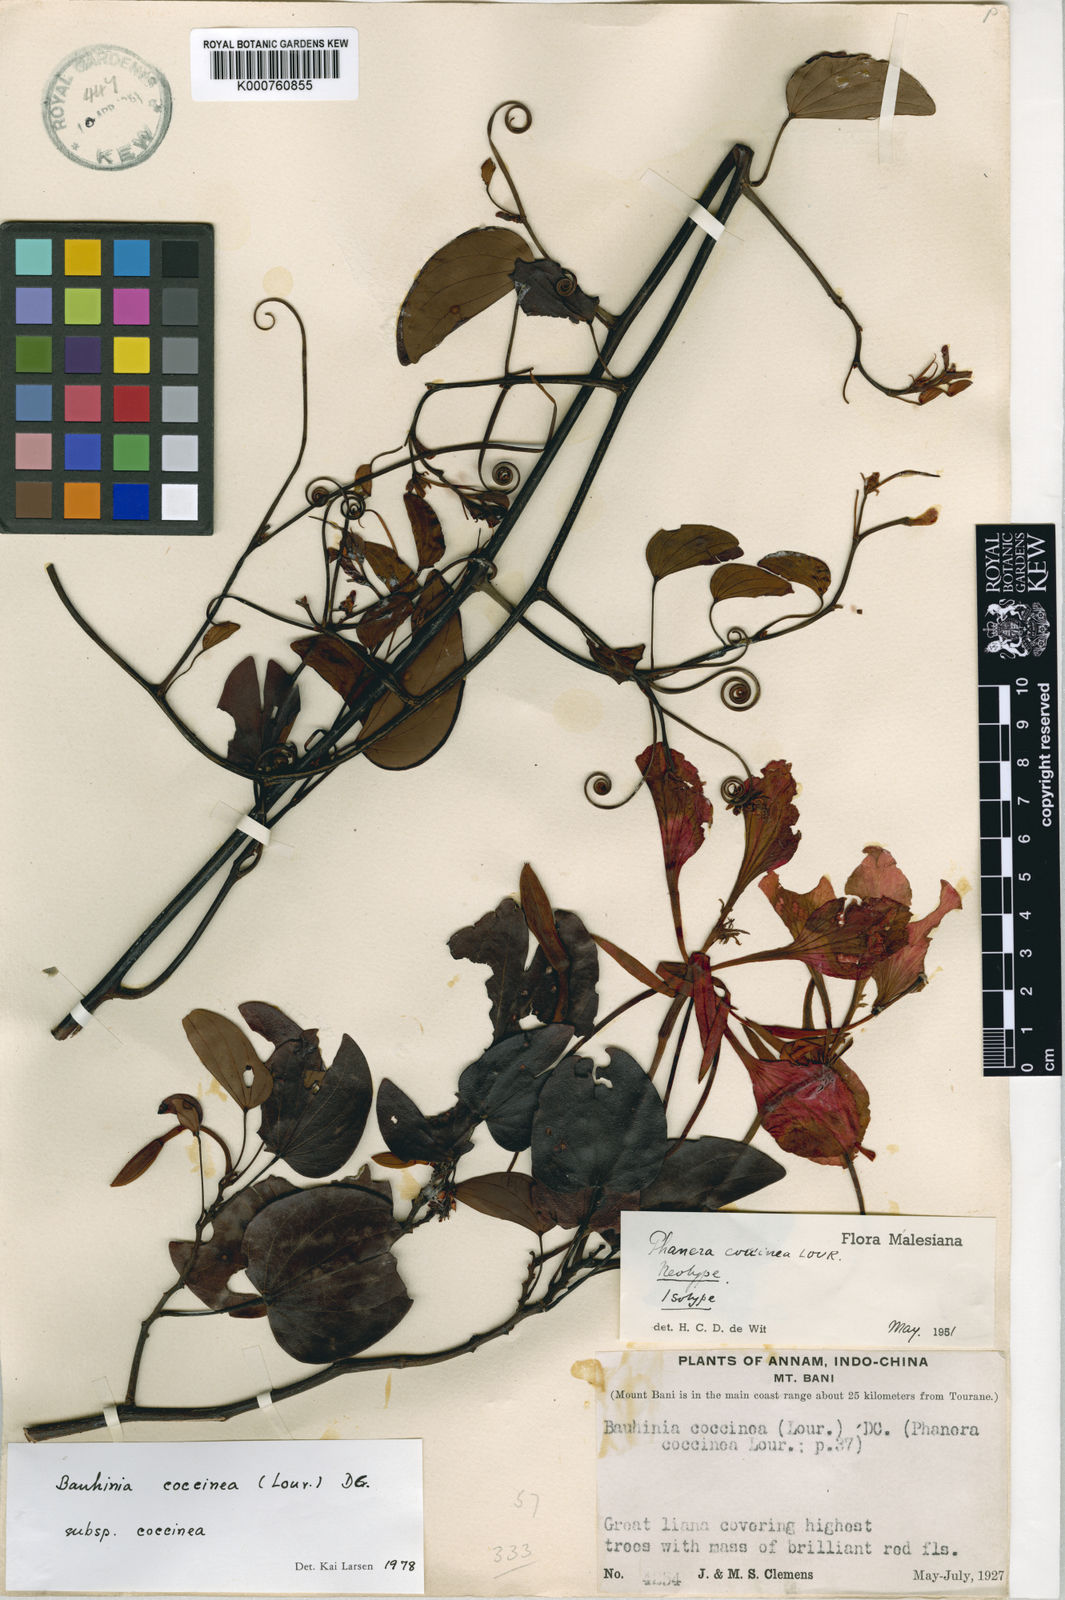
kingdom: Plantae
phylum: Tracheophyta
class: Magnoliopsida
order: Fabales
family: Fabaceae
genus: Phanera
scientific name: Phanera coccinea
